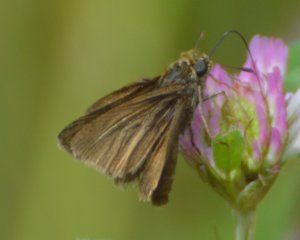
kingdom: Animalia
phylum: Arthropoda
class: Insecta
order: Lepidoptera
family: Hesperiidae
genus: Euphyes
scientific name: Euphyes vestris
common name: Dun Skipper
